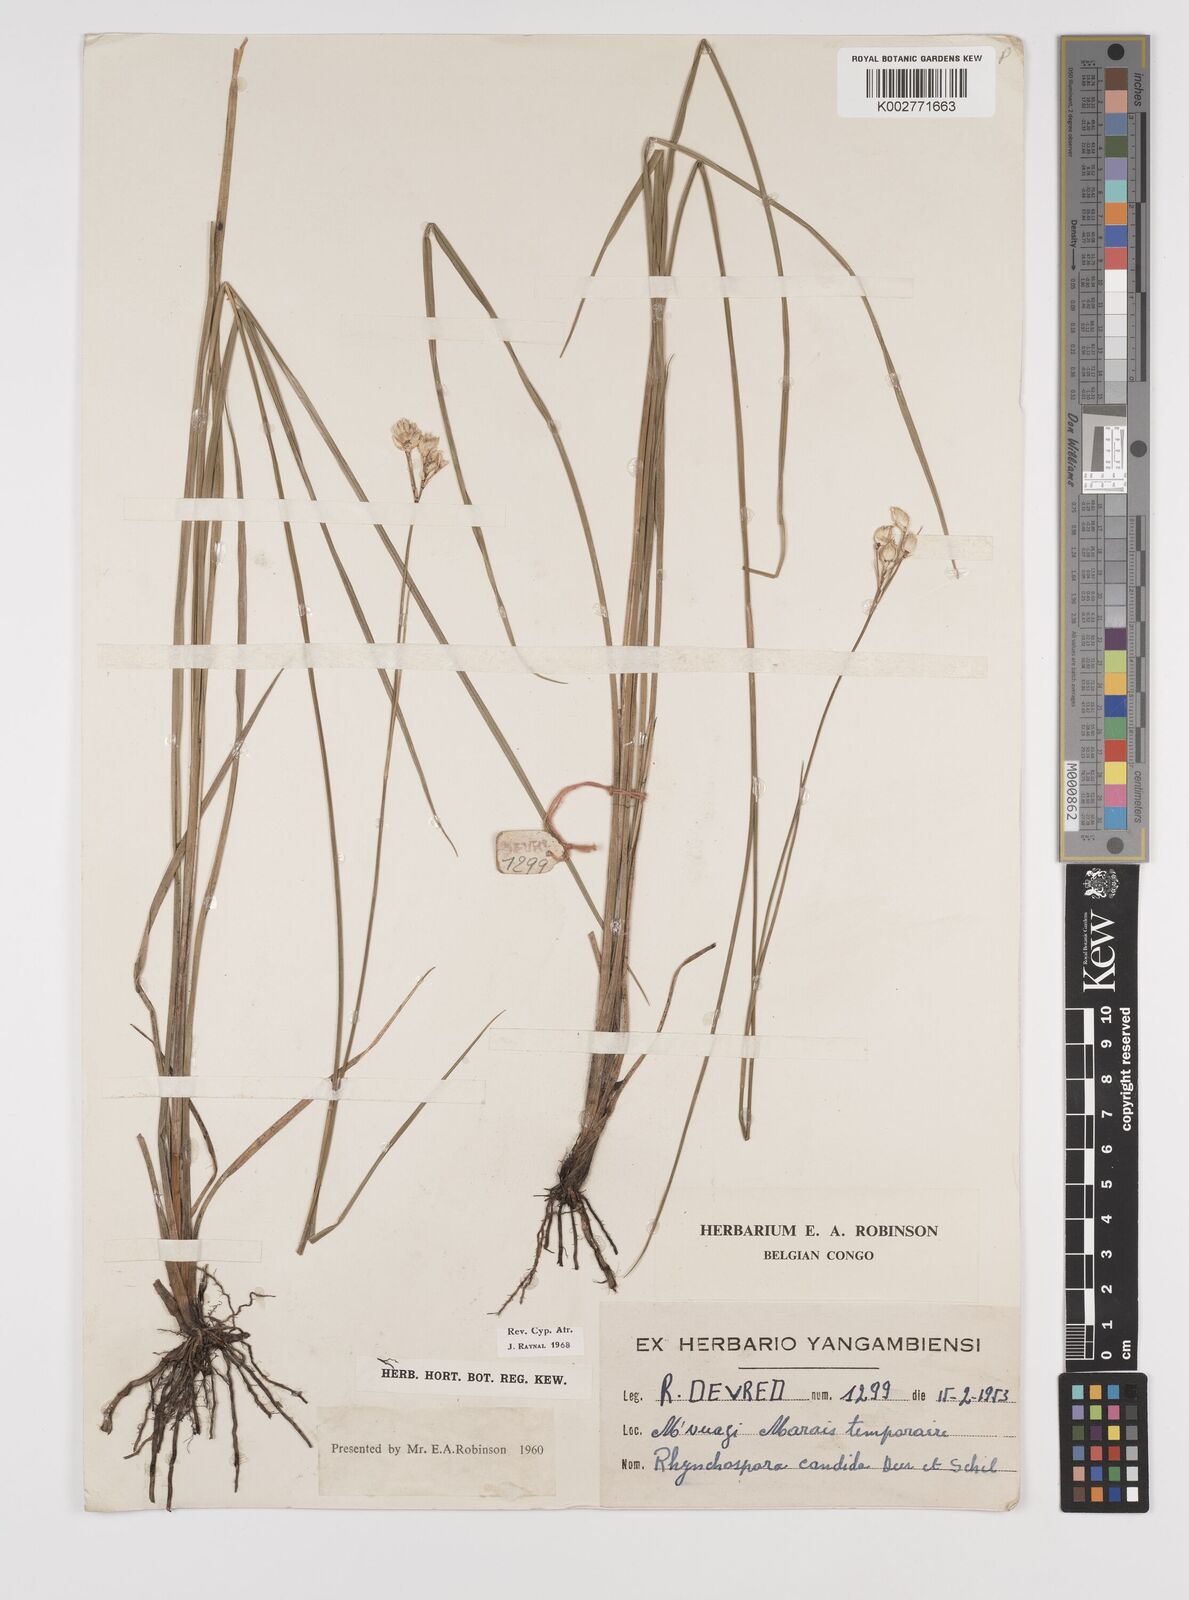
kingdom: Plantae
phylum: Tracheophyta
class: Liliopsida
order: Poales
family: Cyperaceae
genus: Rhynchospora
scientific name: Rhynchospora candida
